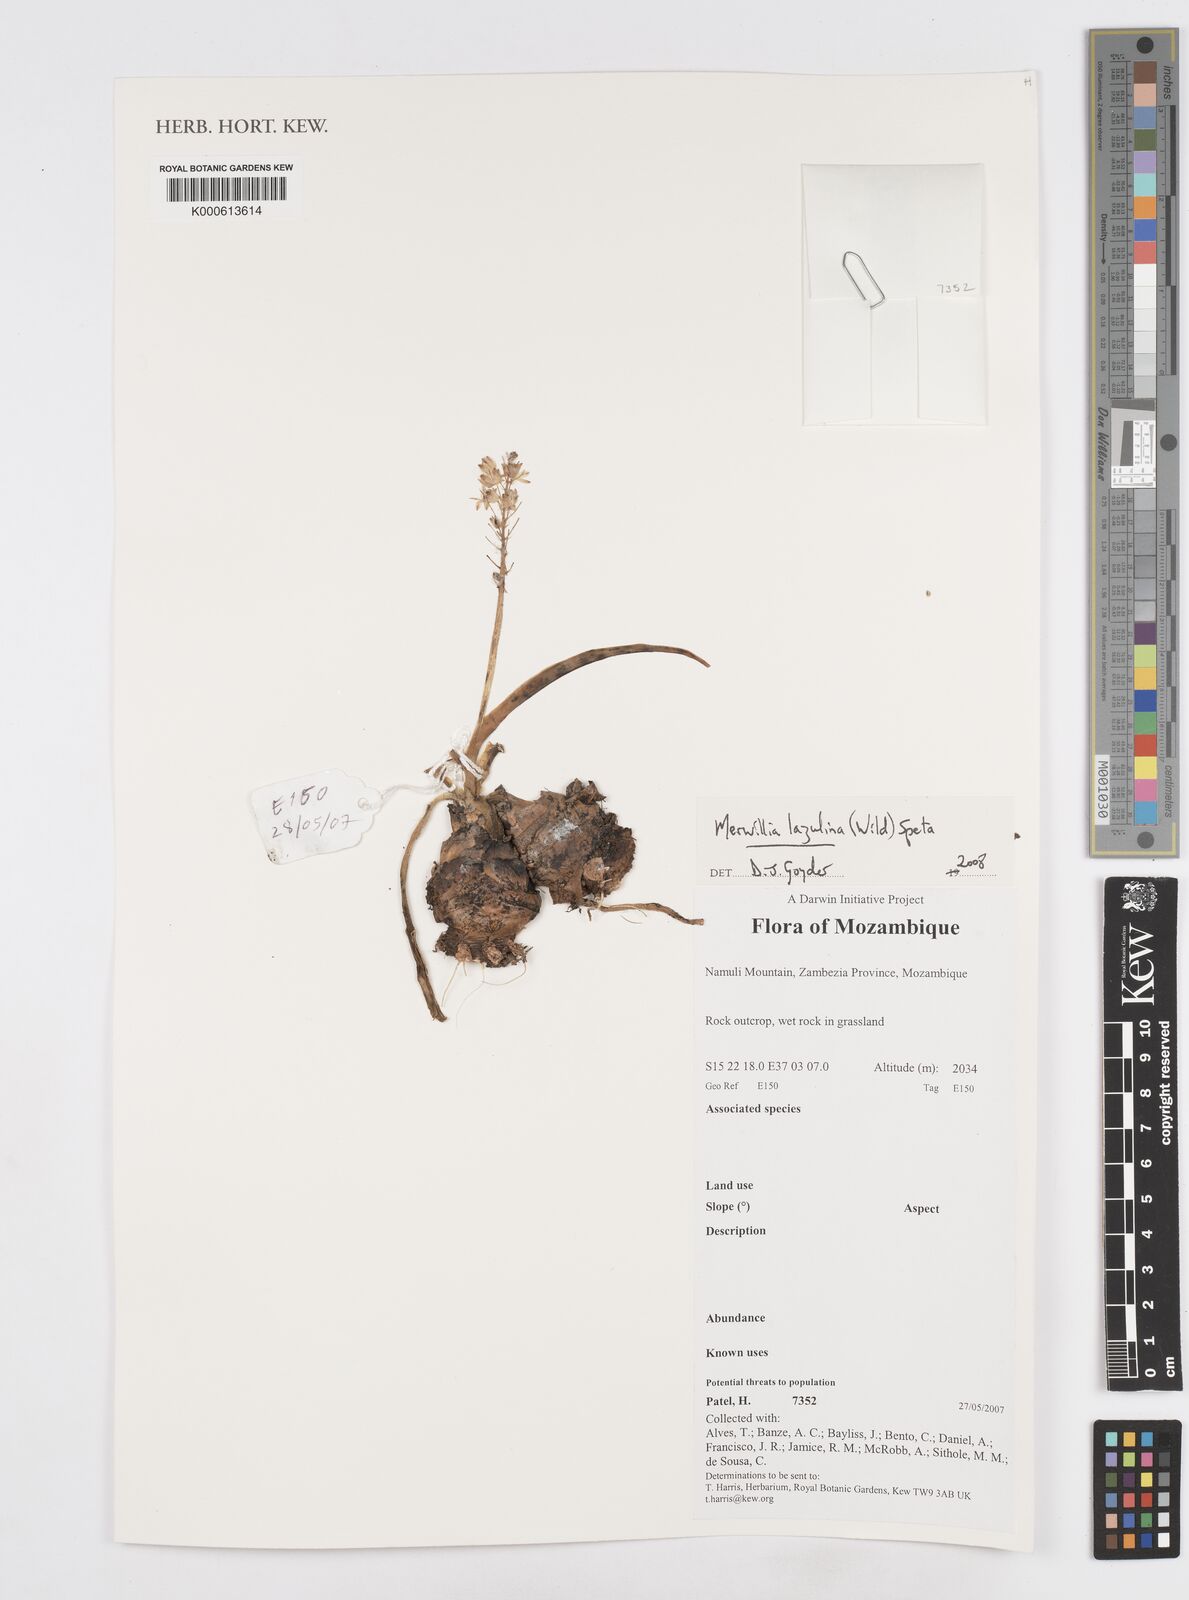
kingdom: Plantae
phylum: Tracheophyta
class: Liliopsida
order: Asparagales
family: Asparagaceae
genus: Merwilla
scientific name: Merwilla plumbea
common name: Blue-squill
